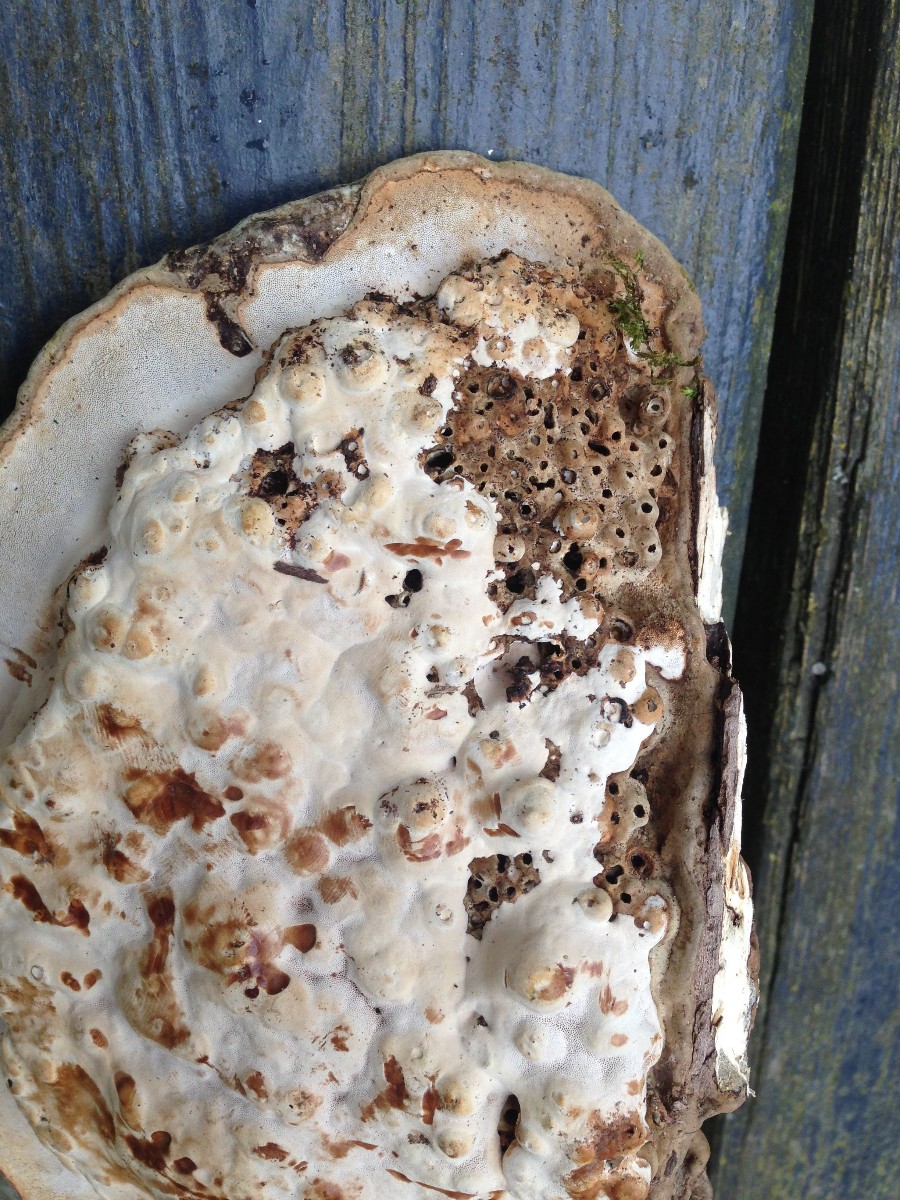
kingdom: Fungi
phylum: Basidiomycota
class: Agaricomycetes
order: Polyporales
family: Polyporaceae
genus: Ganoderma
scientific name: Ganoderma applanatum
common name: flad lakporesvamp
